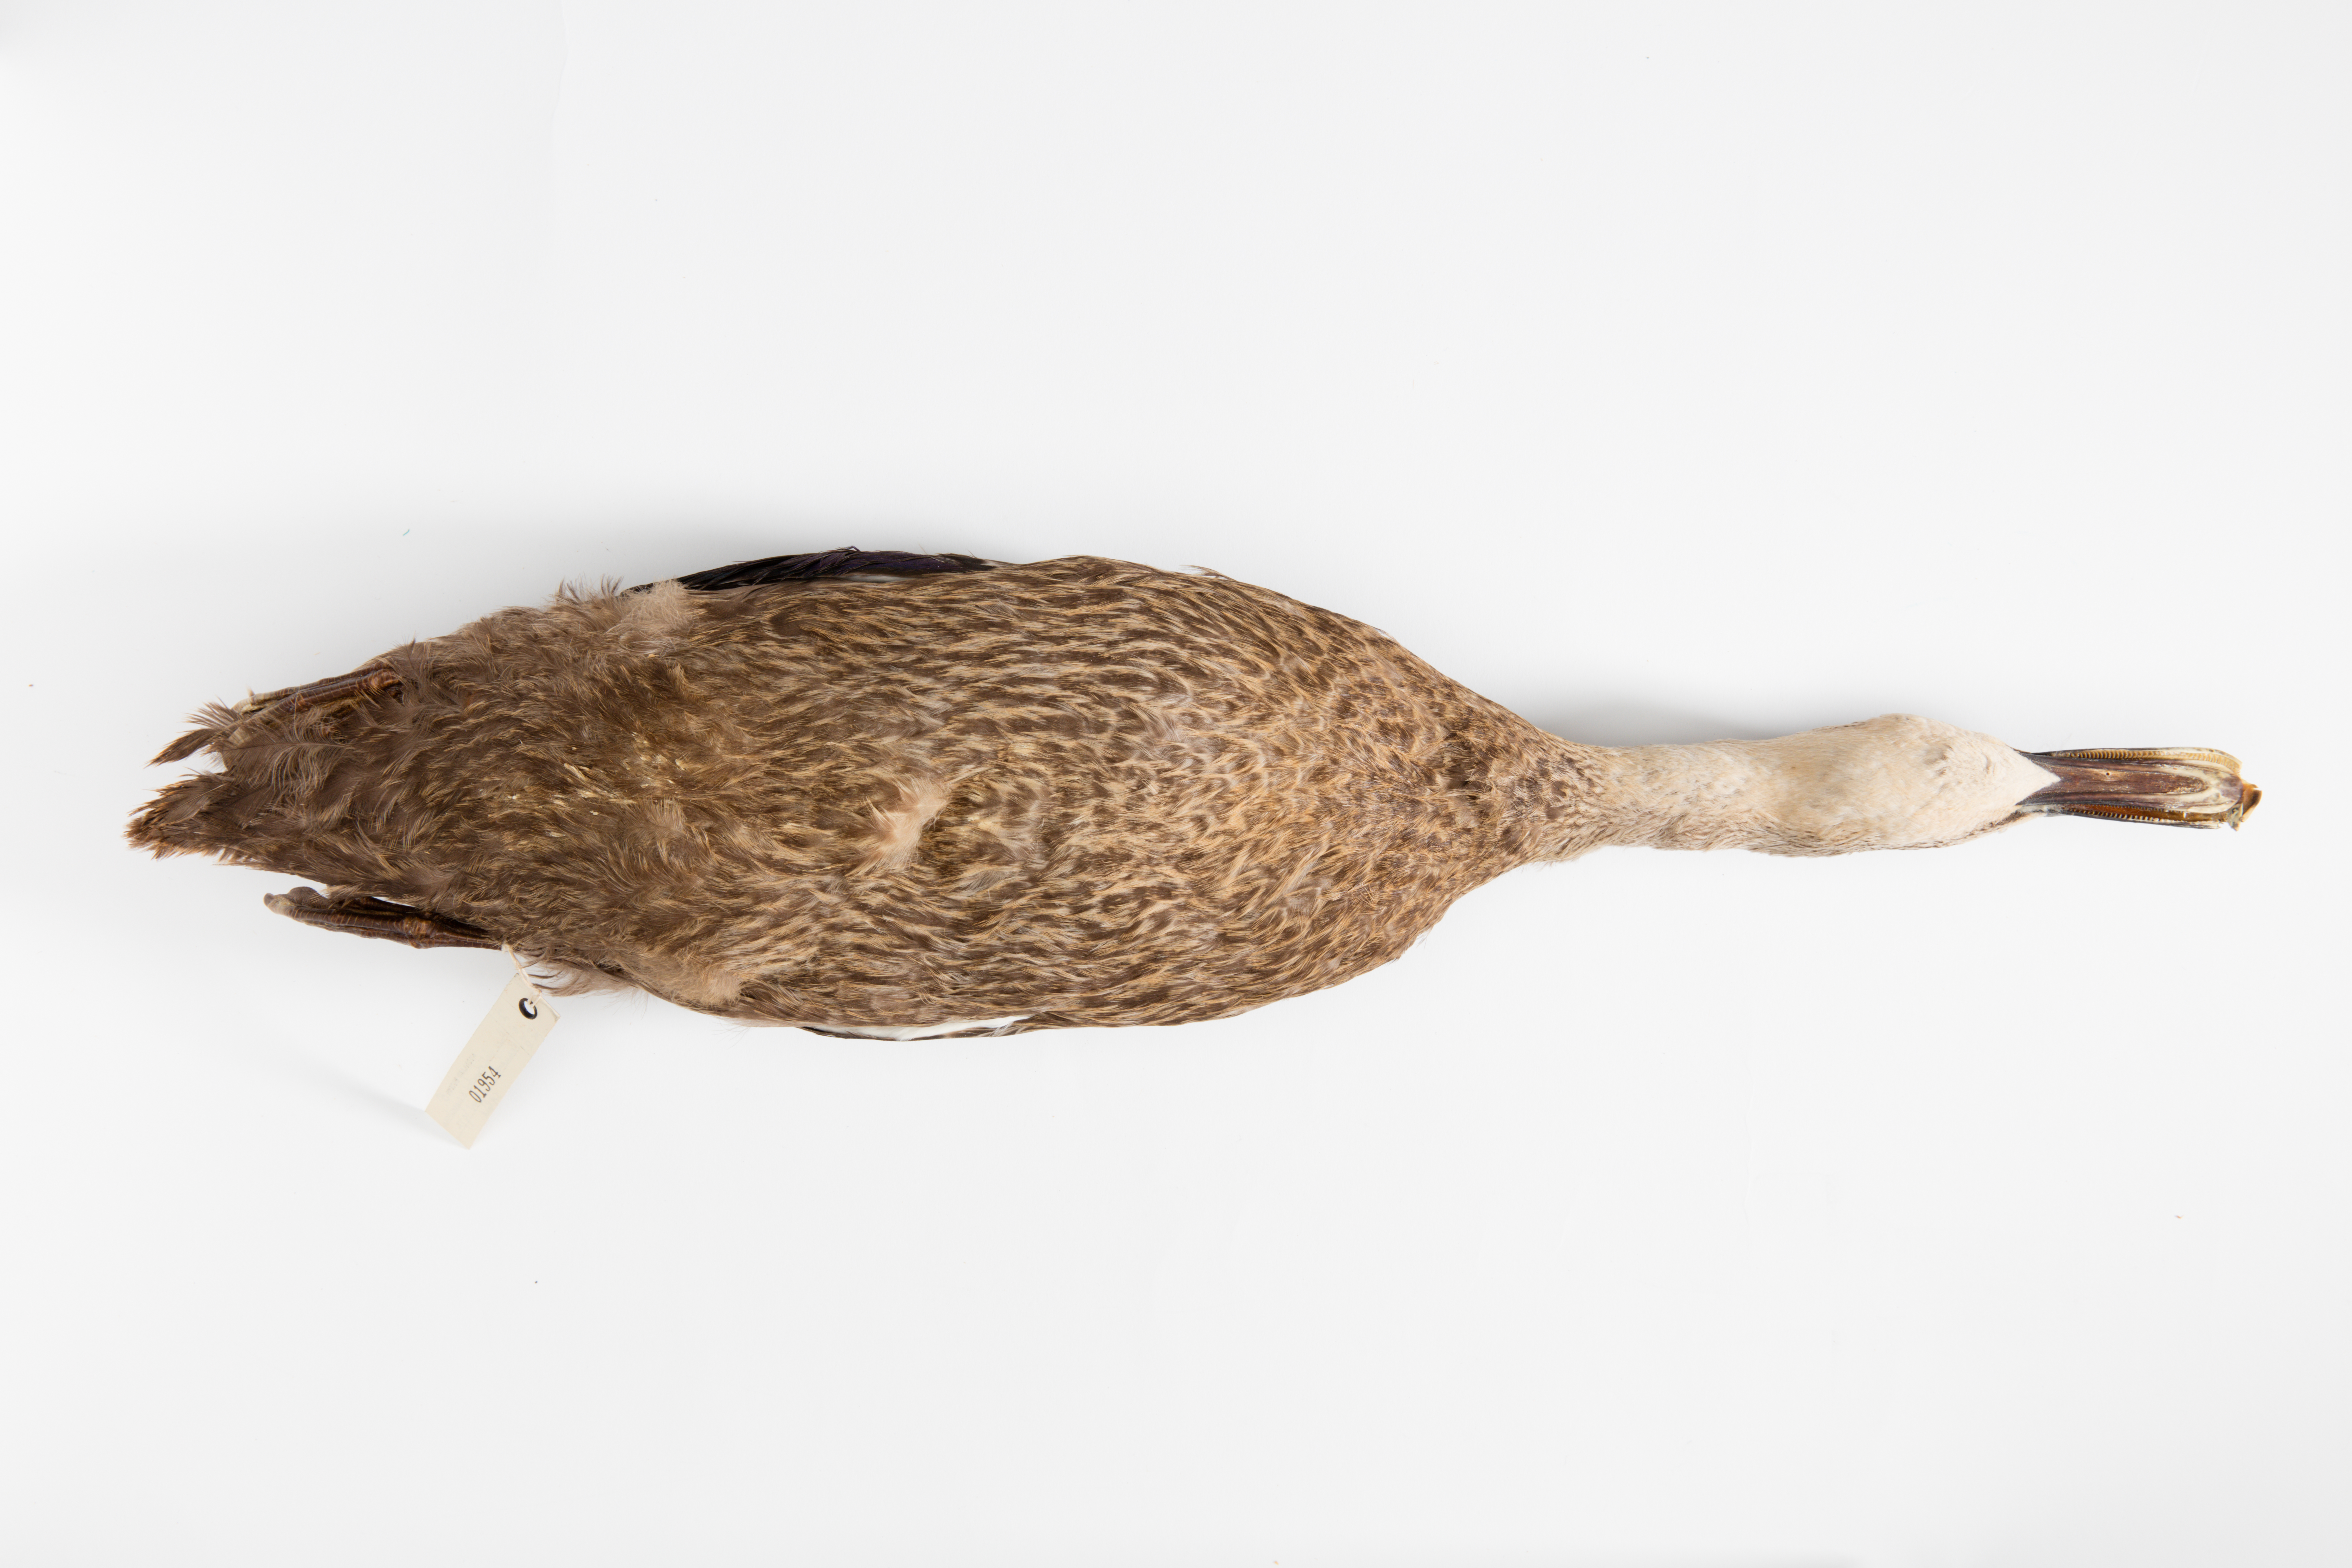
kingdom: Animalia
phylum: Chordata
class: Aves
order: Anseriformes
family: Anatidae
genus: Anas
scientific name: Anas platyrhynchos
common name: Mallard
